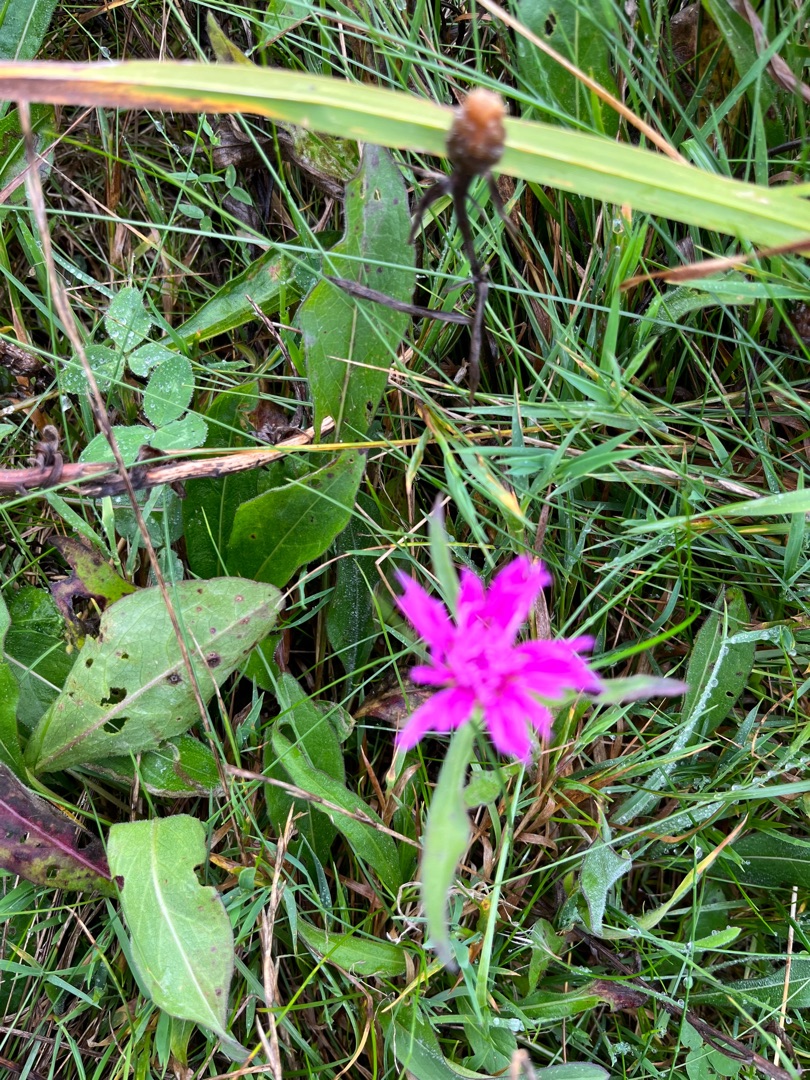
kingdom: Plantae
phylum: Tracheophyta
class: Magnoliopsida
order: Asterales
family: Asteraceae
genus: Centaurea
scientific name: Centaurea jacea
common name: Almindelig knopurt
